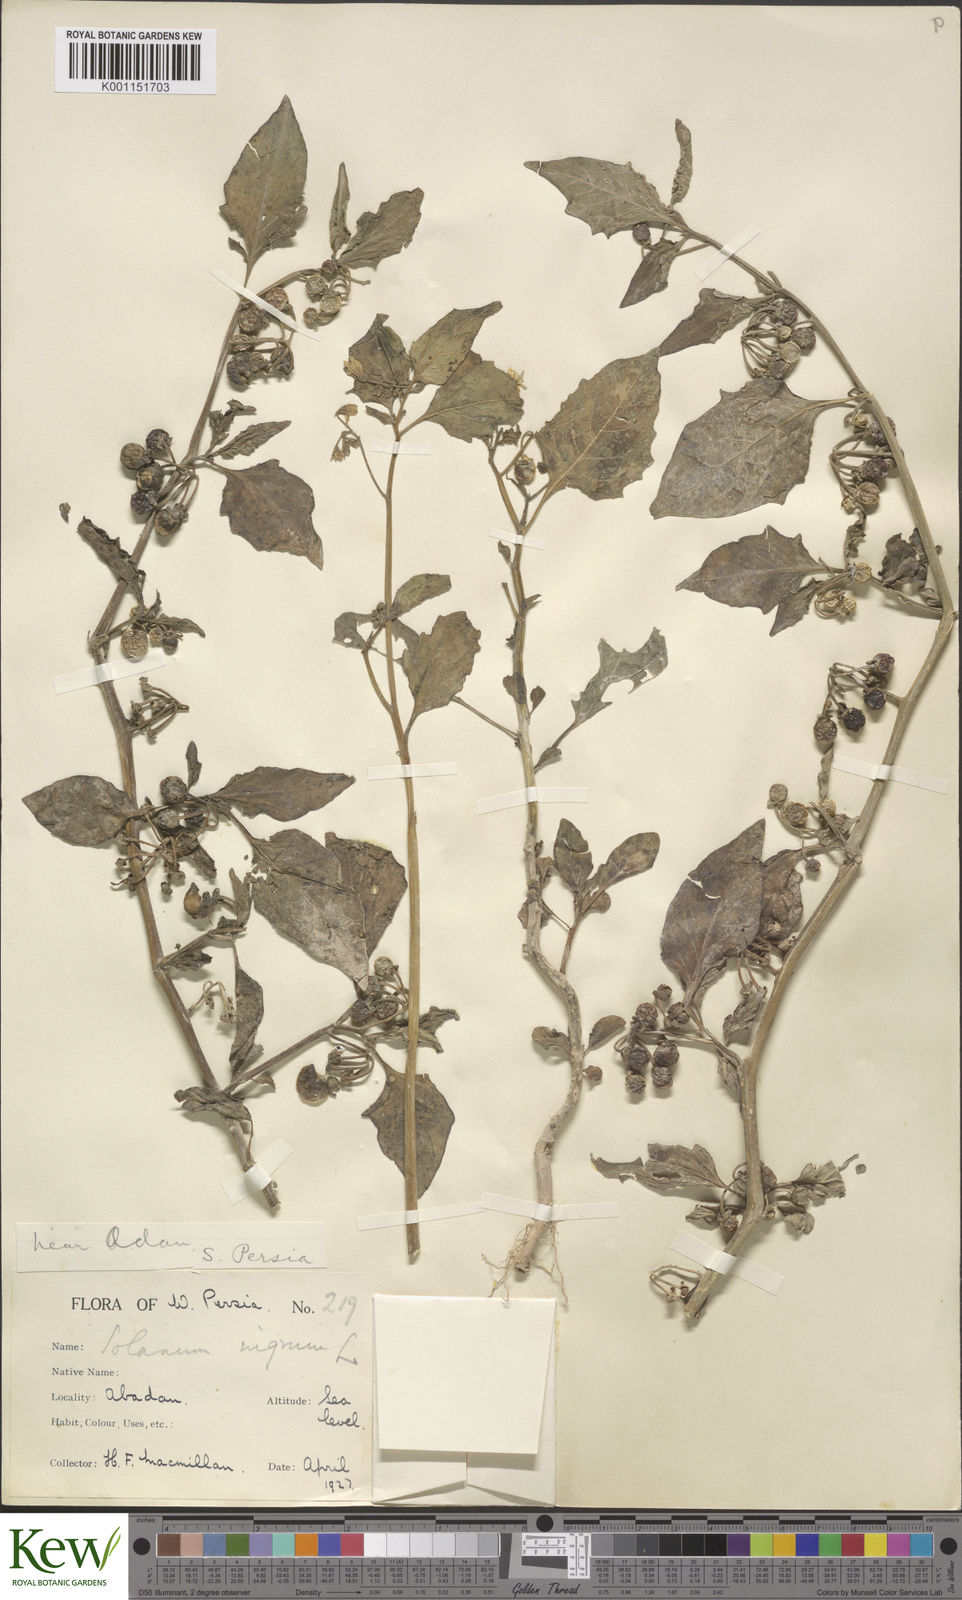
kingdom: Plantae
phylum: Tracheophyta
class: Magnoliopsida
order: Solanales
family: Solanaceae
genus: Solanum
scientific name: Solanum nigrum
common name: Black nightshade
